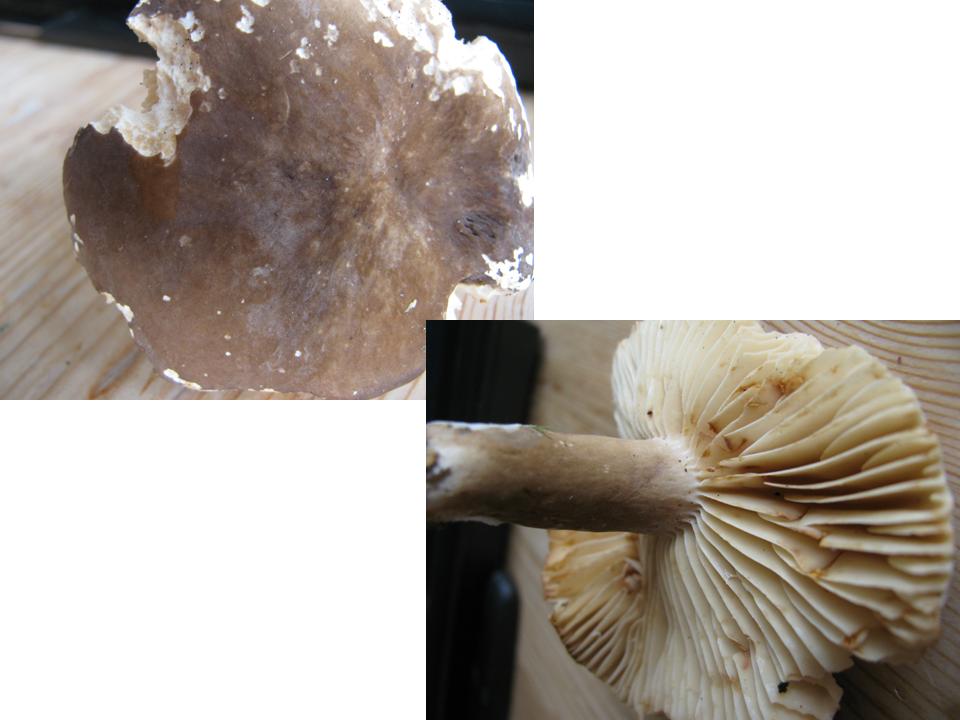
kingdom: Fungi
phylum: Basidiomycota
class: Agaricomycetes
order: Russulales
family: Russulaceae
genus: Lactarius
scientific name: Lactarius romagnesii
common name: fjernbladet mælkehat
